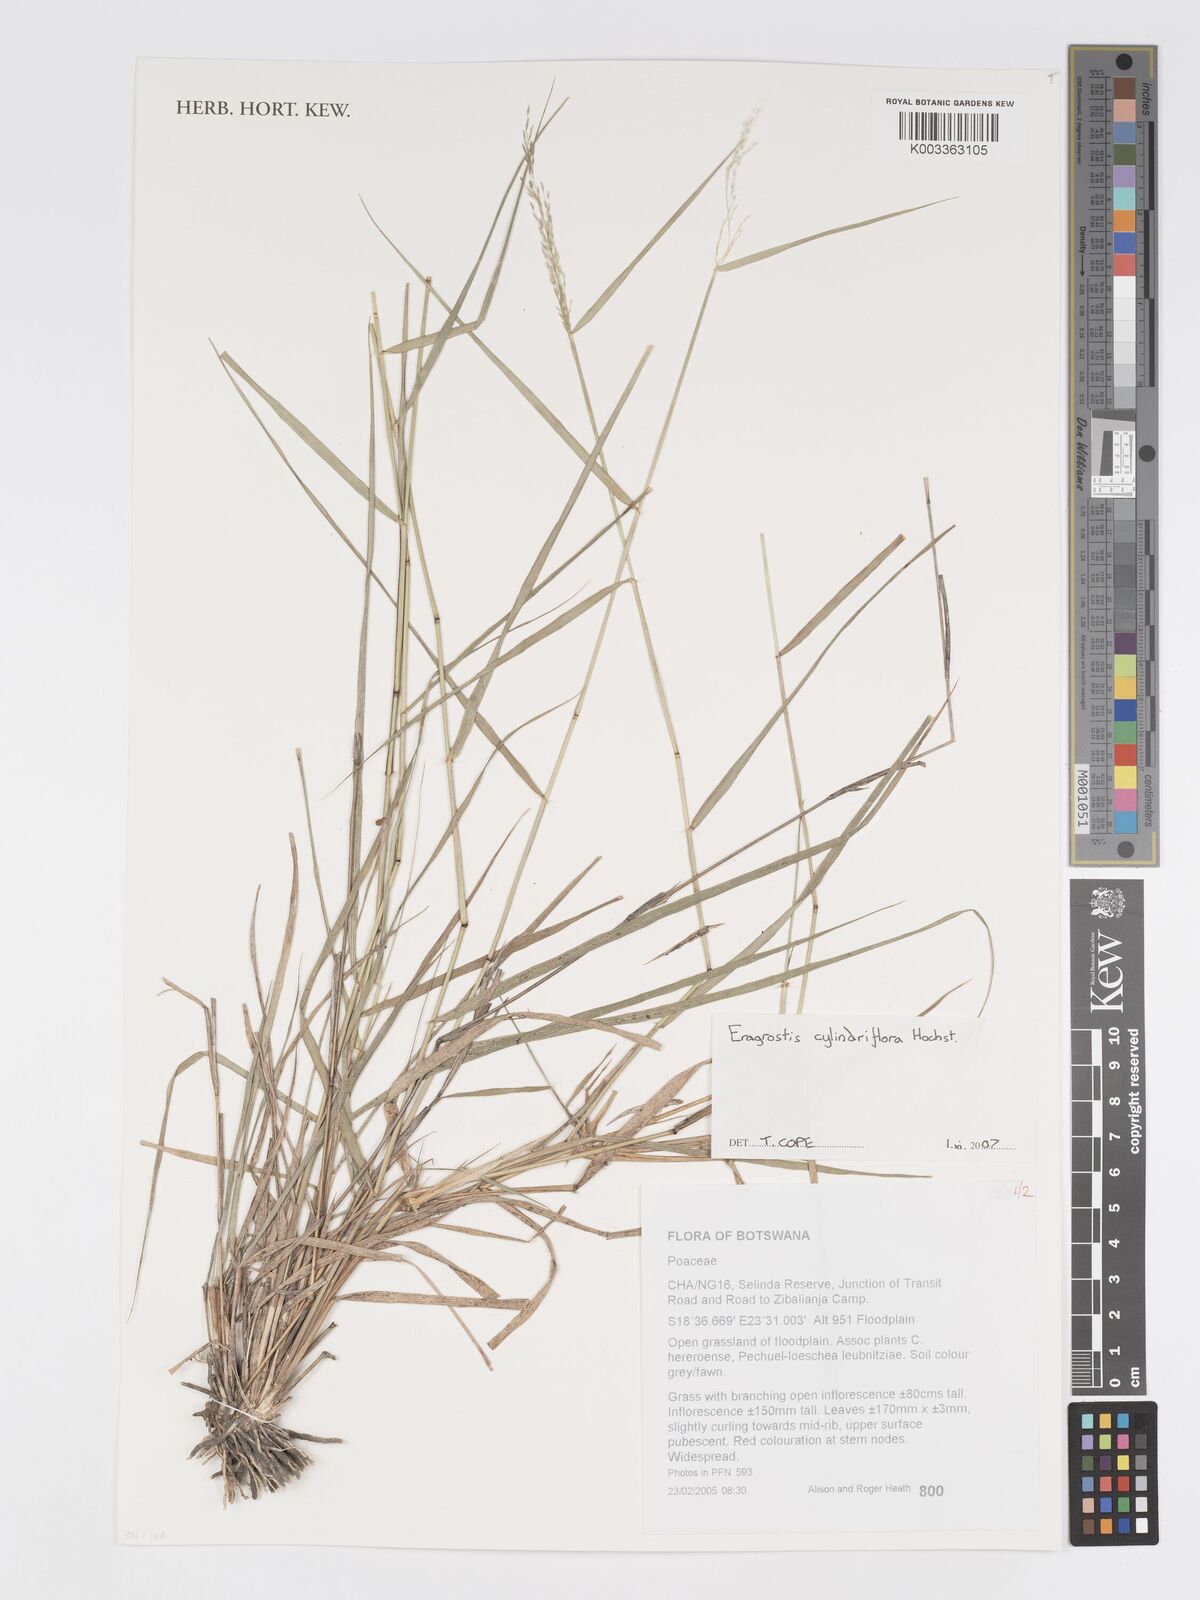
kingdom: Plantae
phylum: Tracheophyta
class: Liliopsida
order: Poales
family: Poaceae
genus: Eragrostis
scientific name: Eragrostis cylindriflora
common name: Cylinderflower lovegrass
